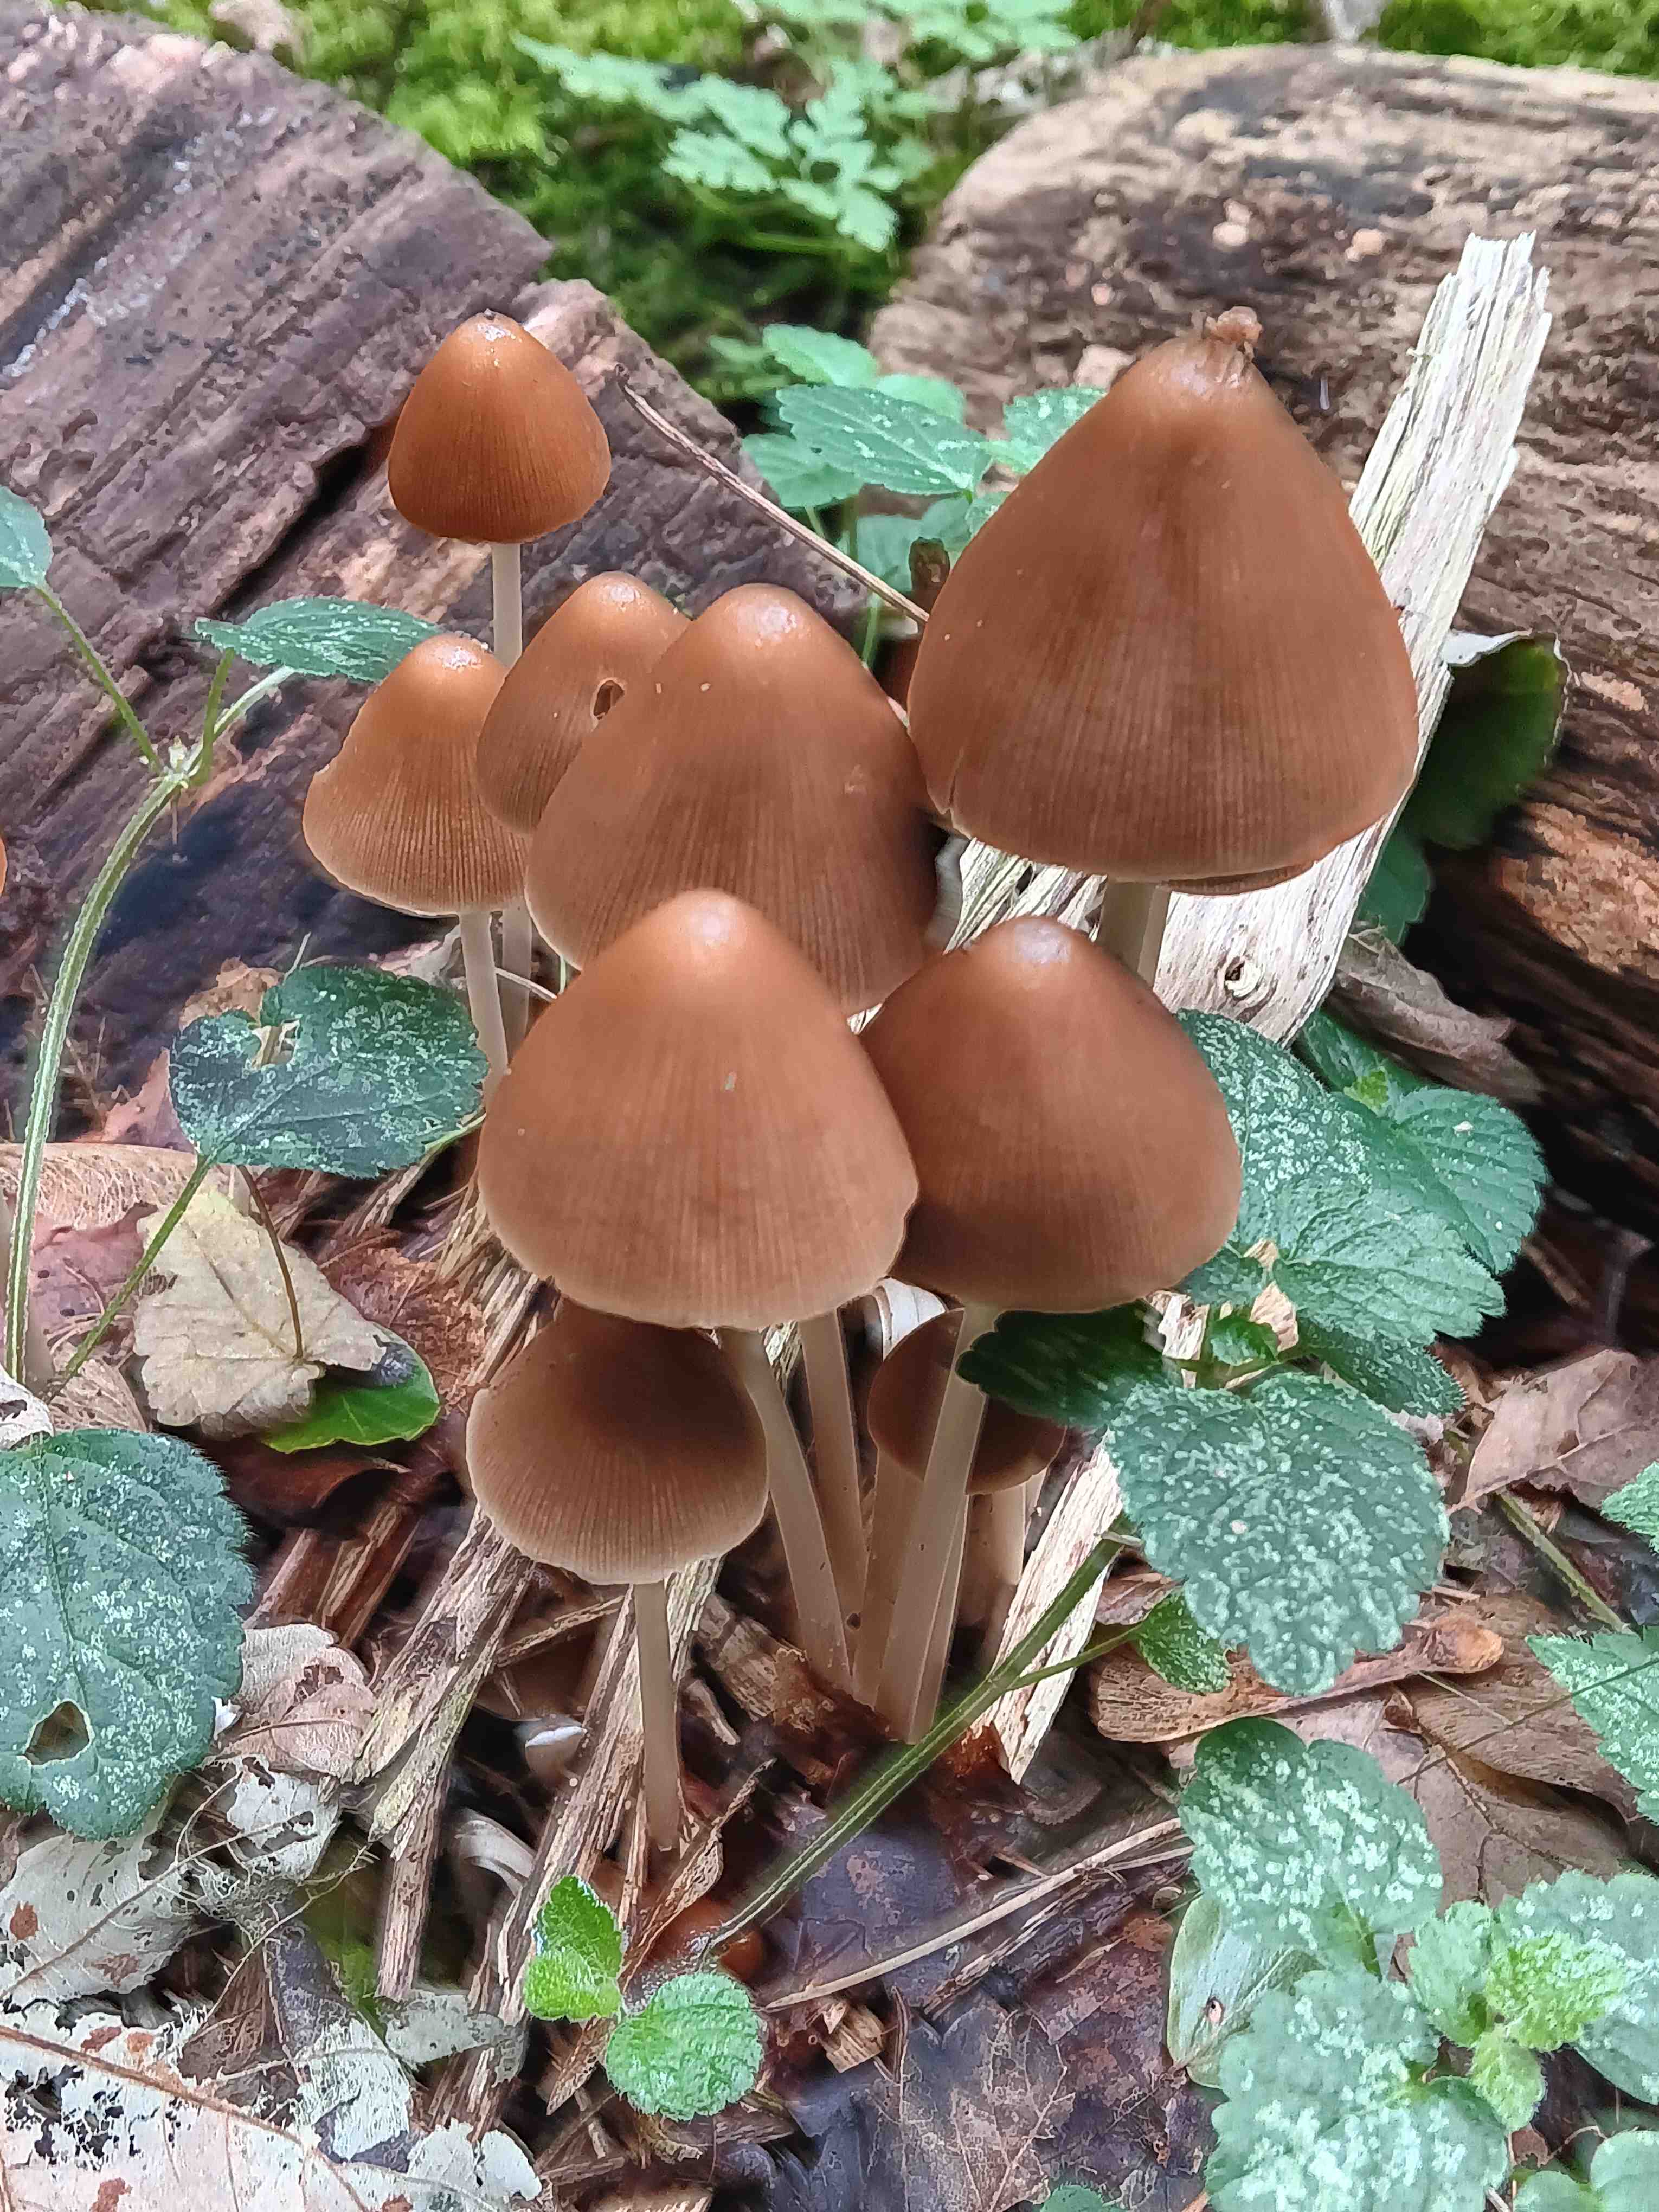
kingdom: Fungi
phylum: Basidiomycota
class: Agaricomycetes
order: Agaricales
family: Psathyrellaceae
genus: Parasola
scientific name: Parasola conopilea
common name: kegle-hjulhat
